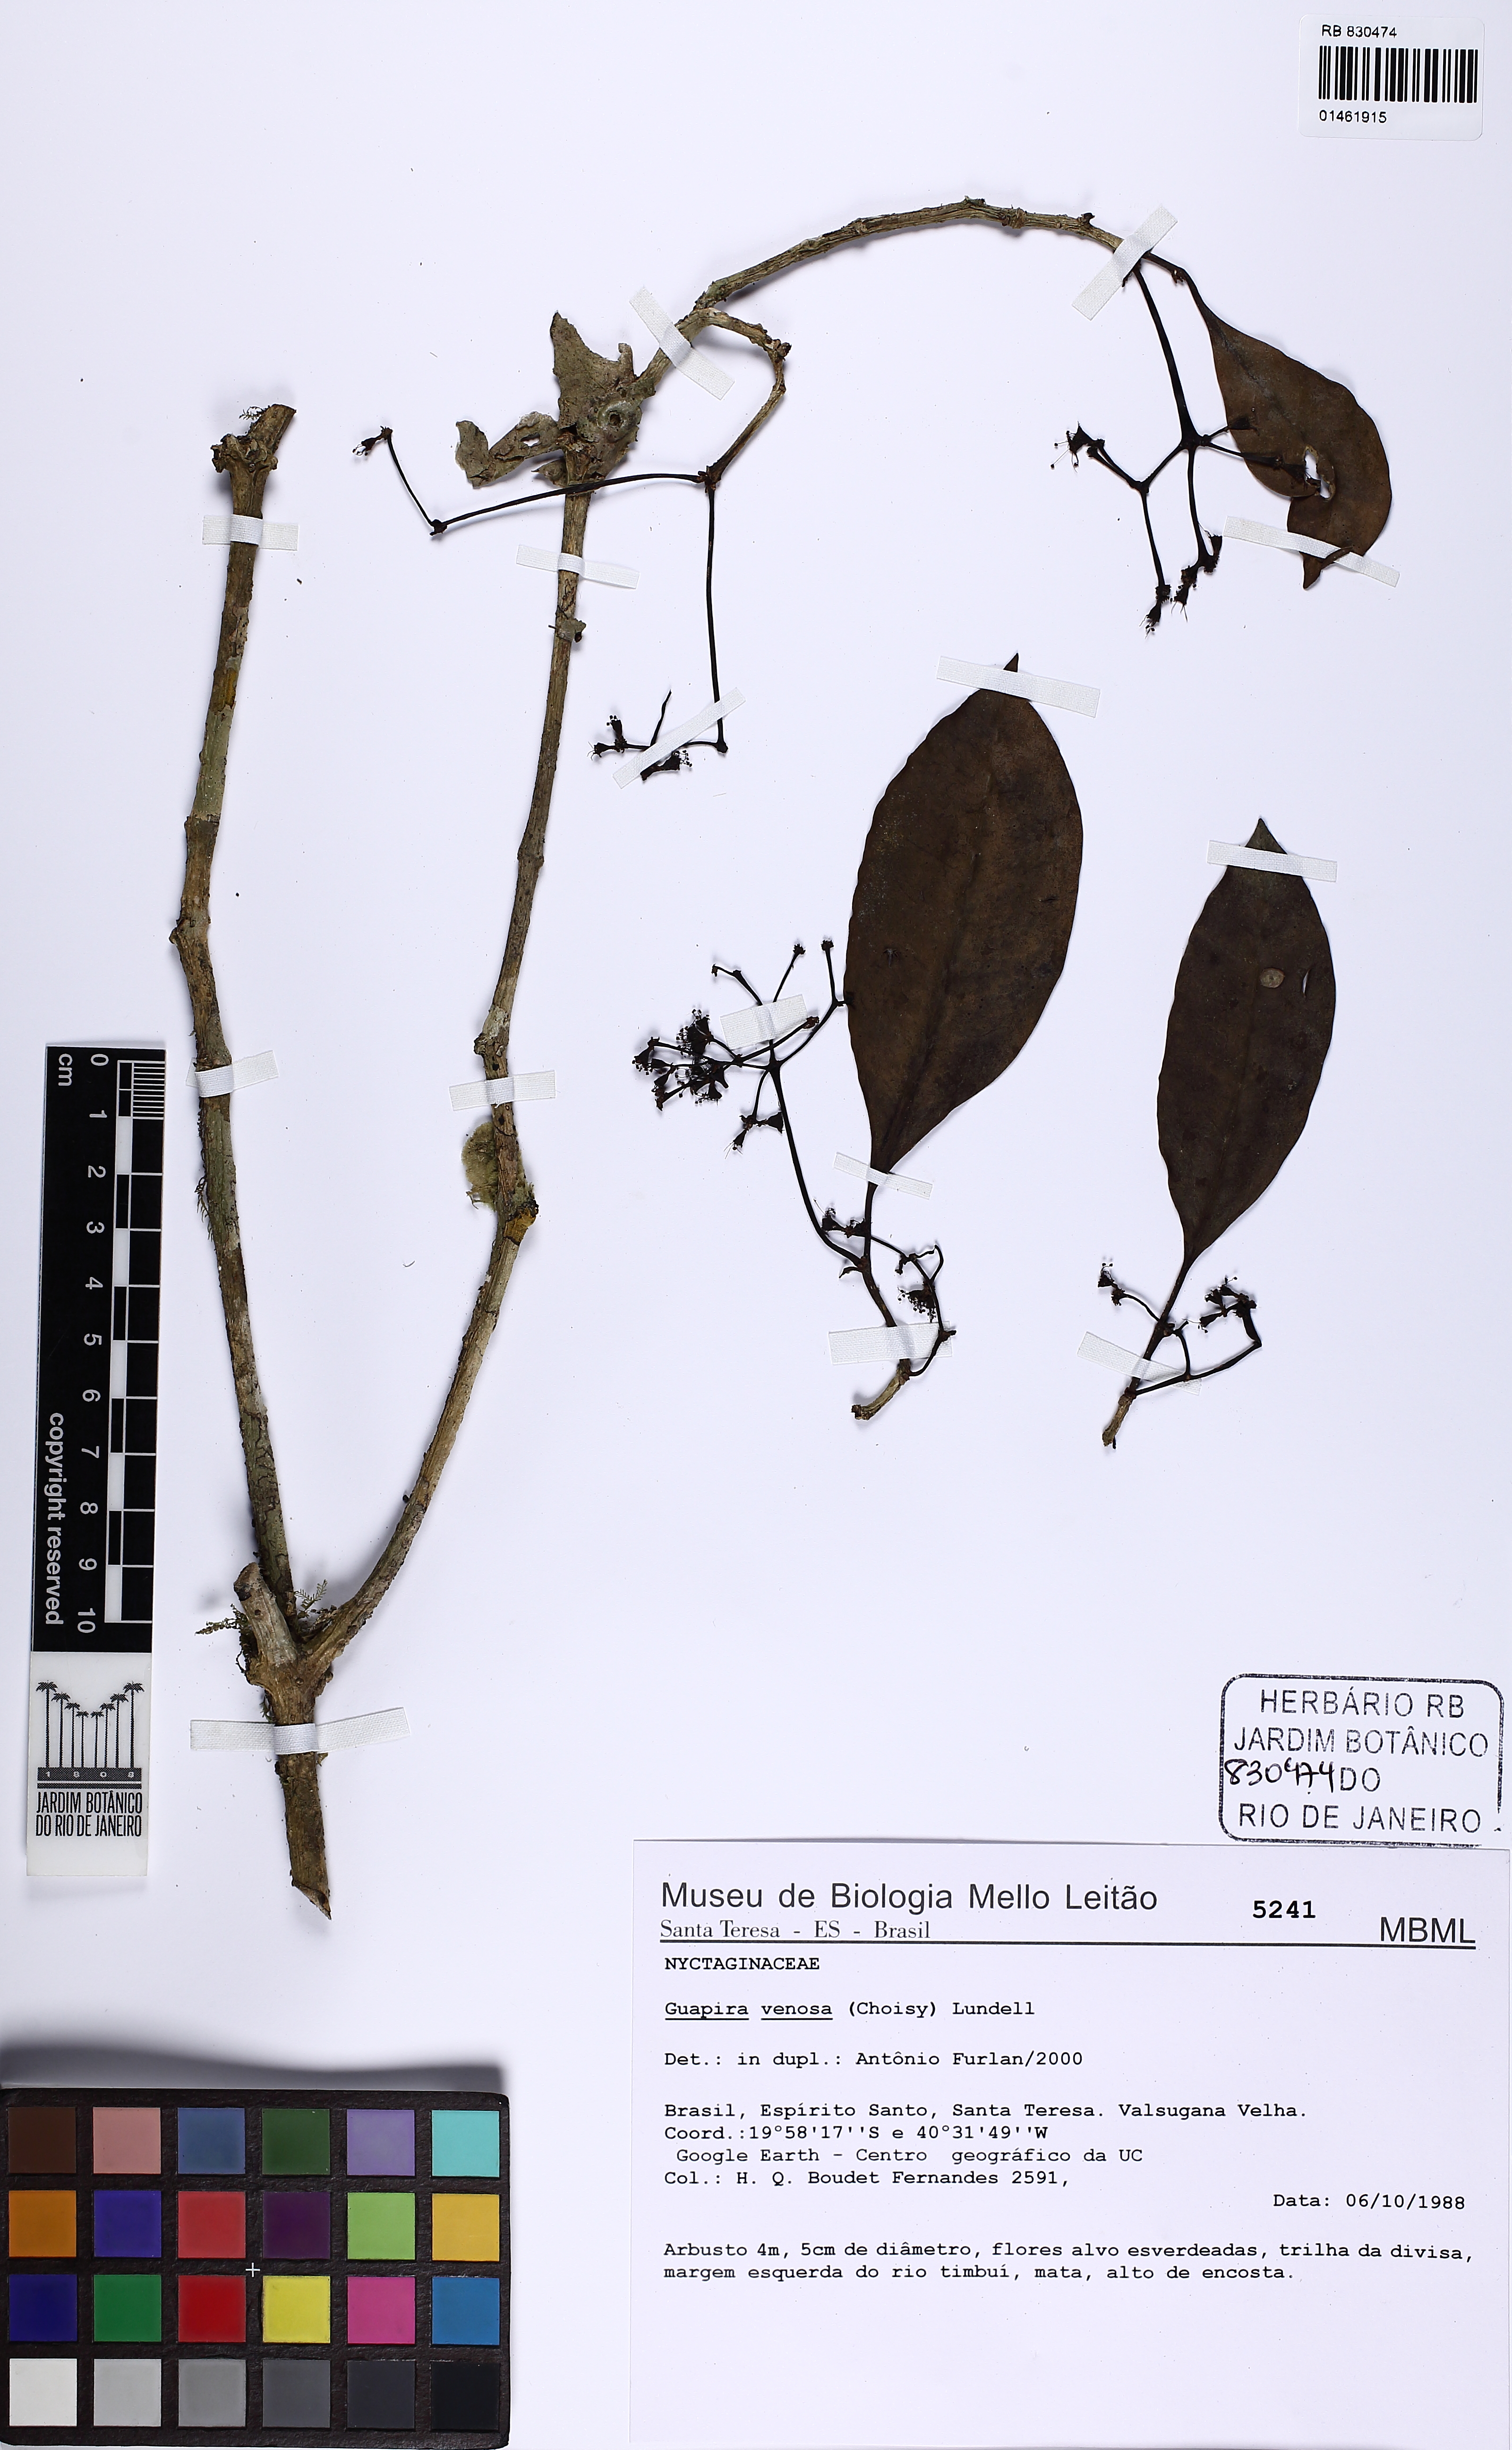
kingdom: Plantae
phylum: Tracheophyta
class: Magnoliopsida
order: Caryophyllales
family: Nyctaginaceae
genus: Guapira
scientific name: Guapira venosa
